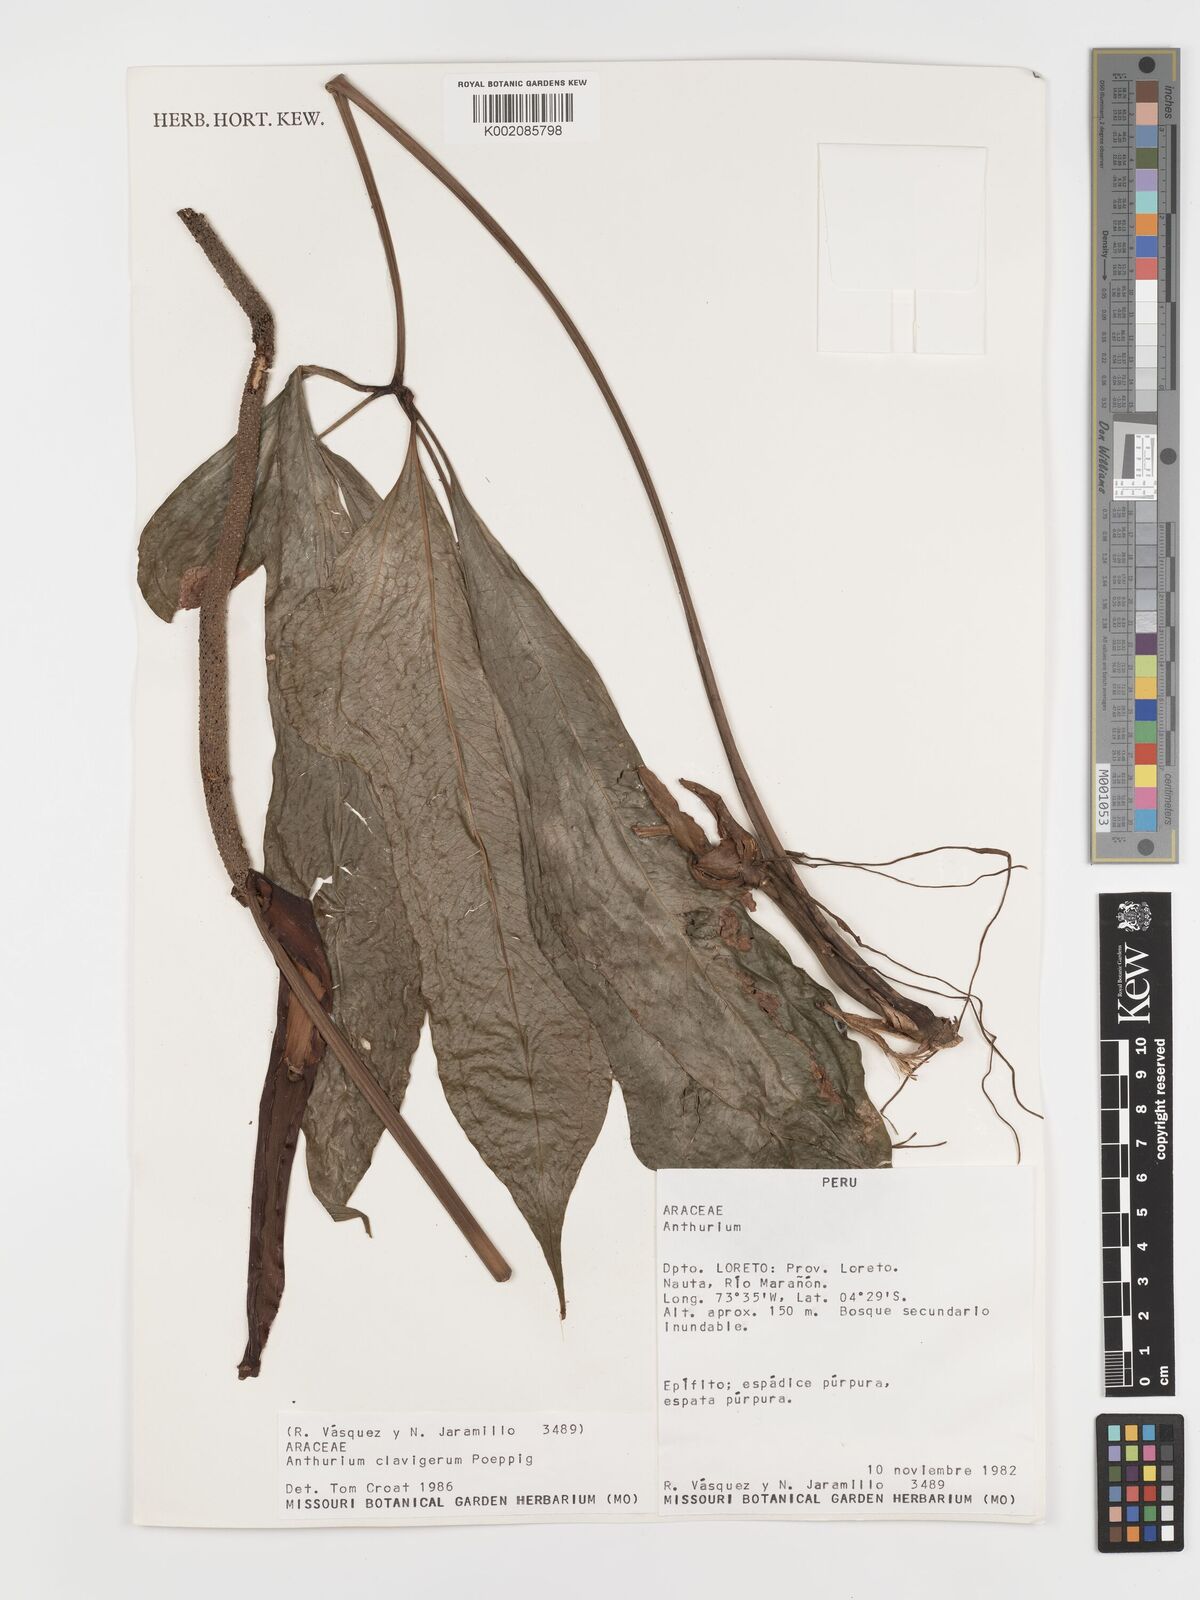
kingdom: Plantae
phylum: Tracheophyta
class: Liliopsida
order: Alismatales
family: Araceae
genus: Anthurium
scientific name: Anthurium clavigerum
